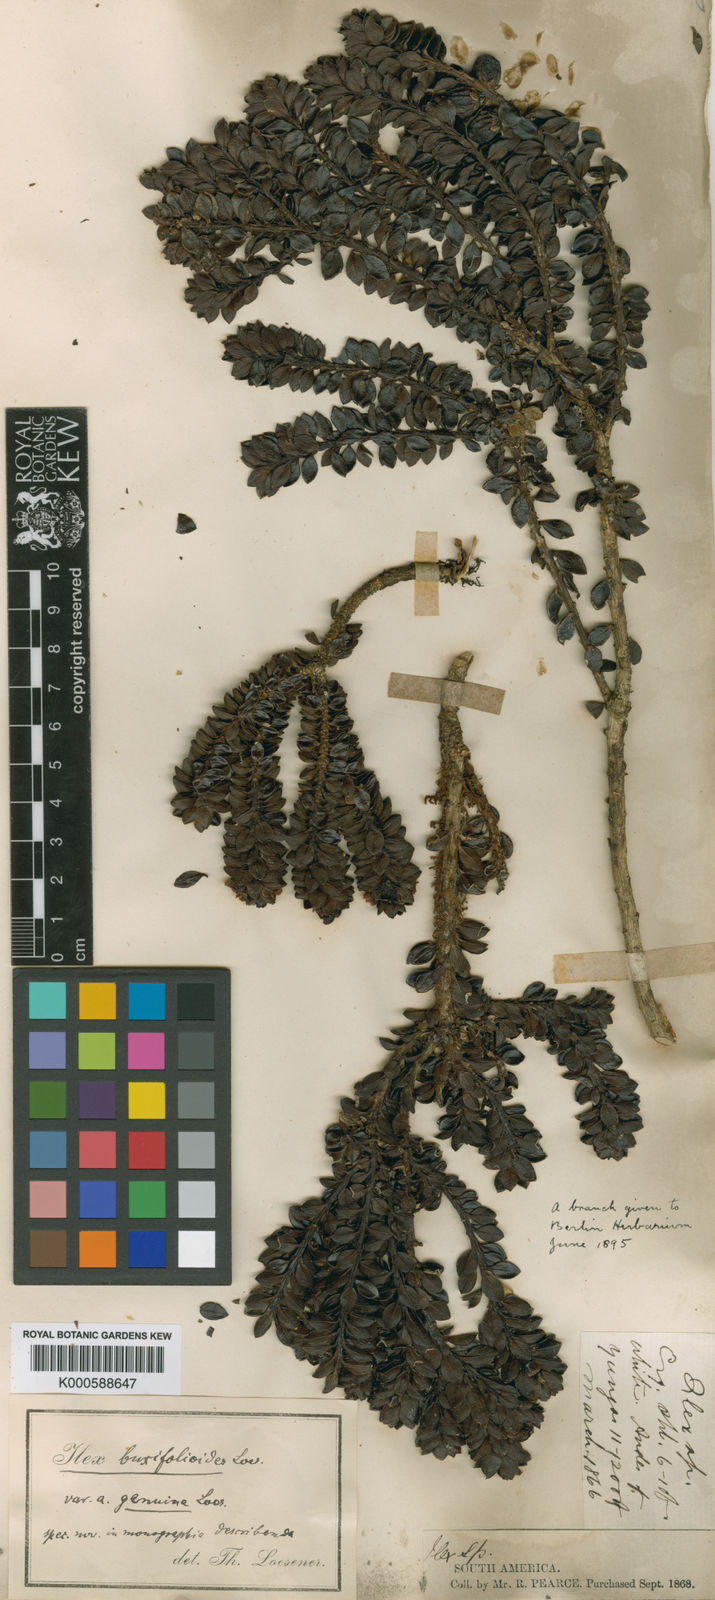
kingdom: Plantae
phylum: Tracheophyta
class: Magnoliopsida
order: Aquifoliales
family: Aquifoliaceae
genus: Ilex
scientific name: Ilex mandonii
